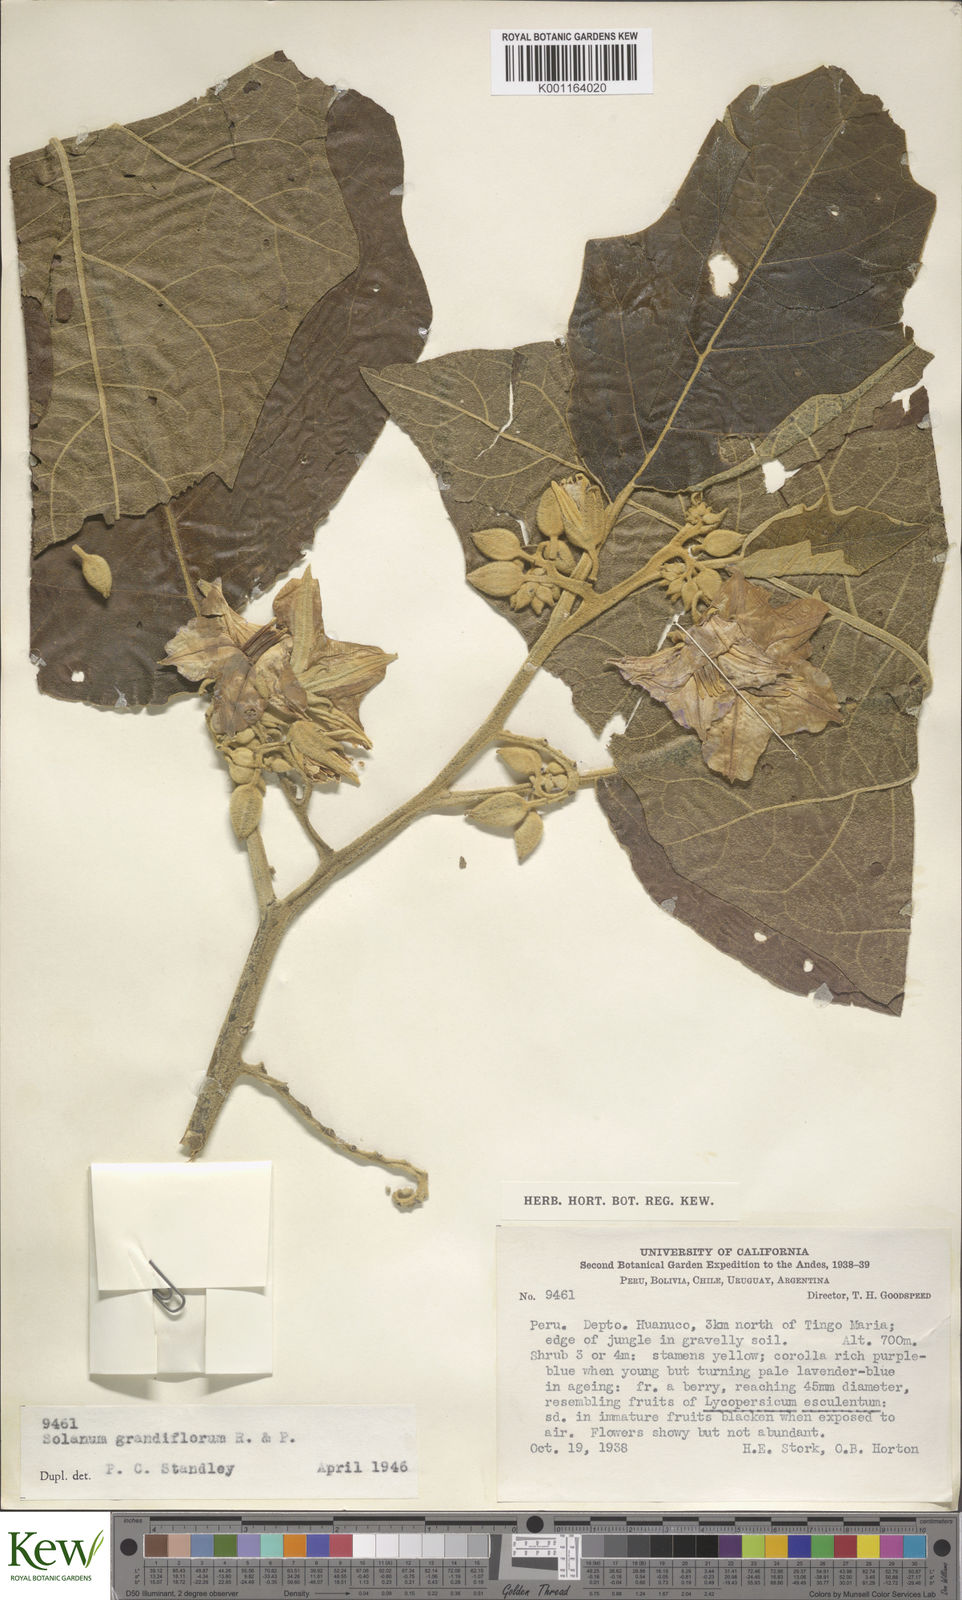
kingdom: Plantae
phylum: Tracheophyta
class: Magnoliopsida
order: Solanales
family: Solanaceae
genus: Solanum
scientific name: Solanum grandiflorum
